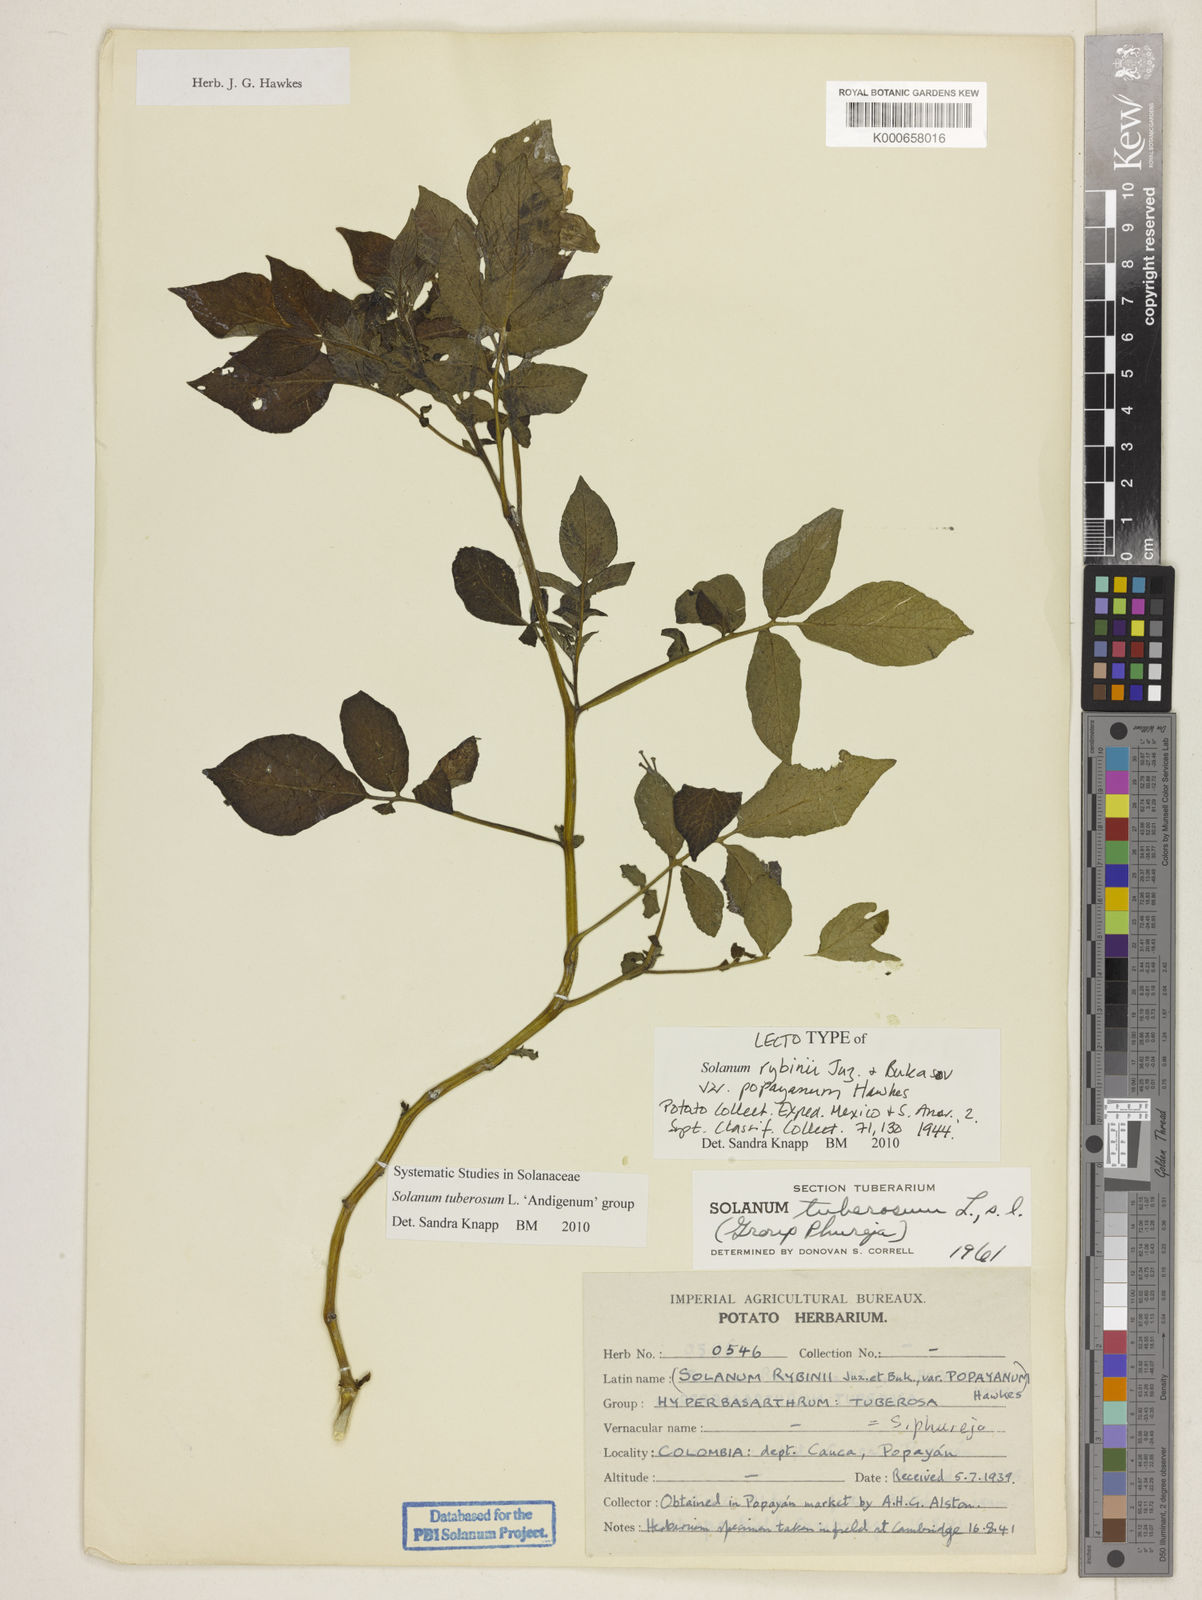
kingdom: Plantae
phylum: Tracheophyta
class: Magnoliopsida
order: Solanales
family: Solanaceae
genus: Solanum
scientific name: Solanum tuberosum
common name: Potato
